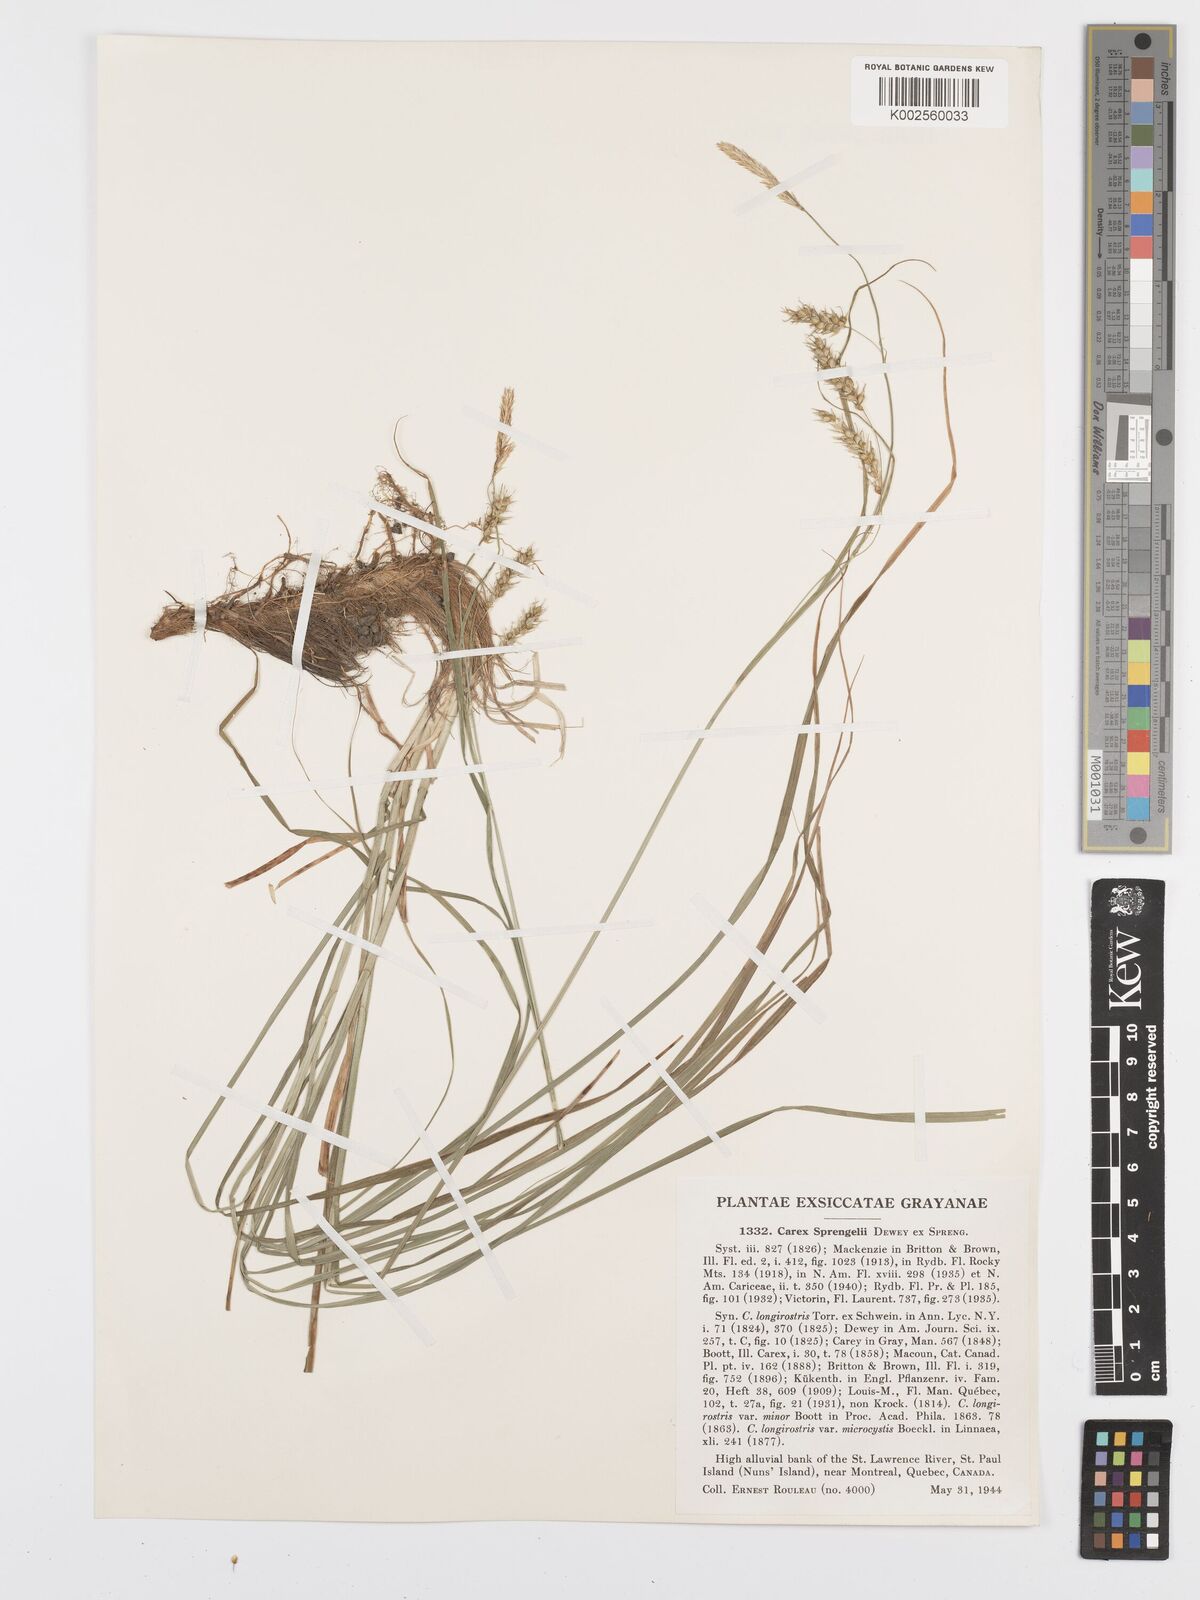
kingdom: Plantae
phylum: Tracheophyta
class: Liliopsida
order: Poales
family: Cyperaceae
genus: Carex
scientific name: Carex sprengelii
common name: Long-beaked sedge
